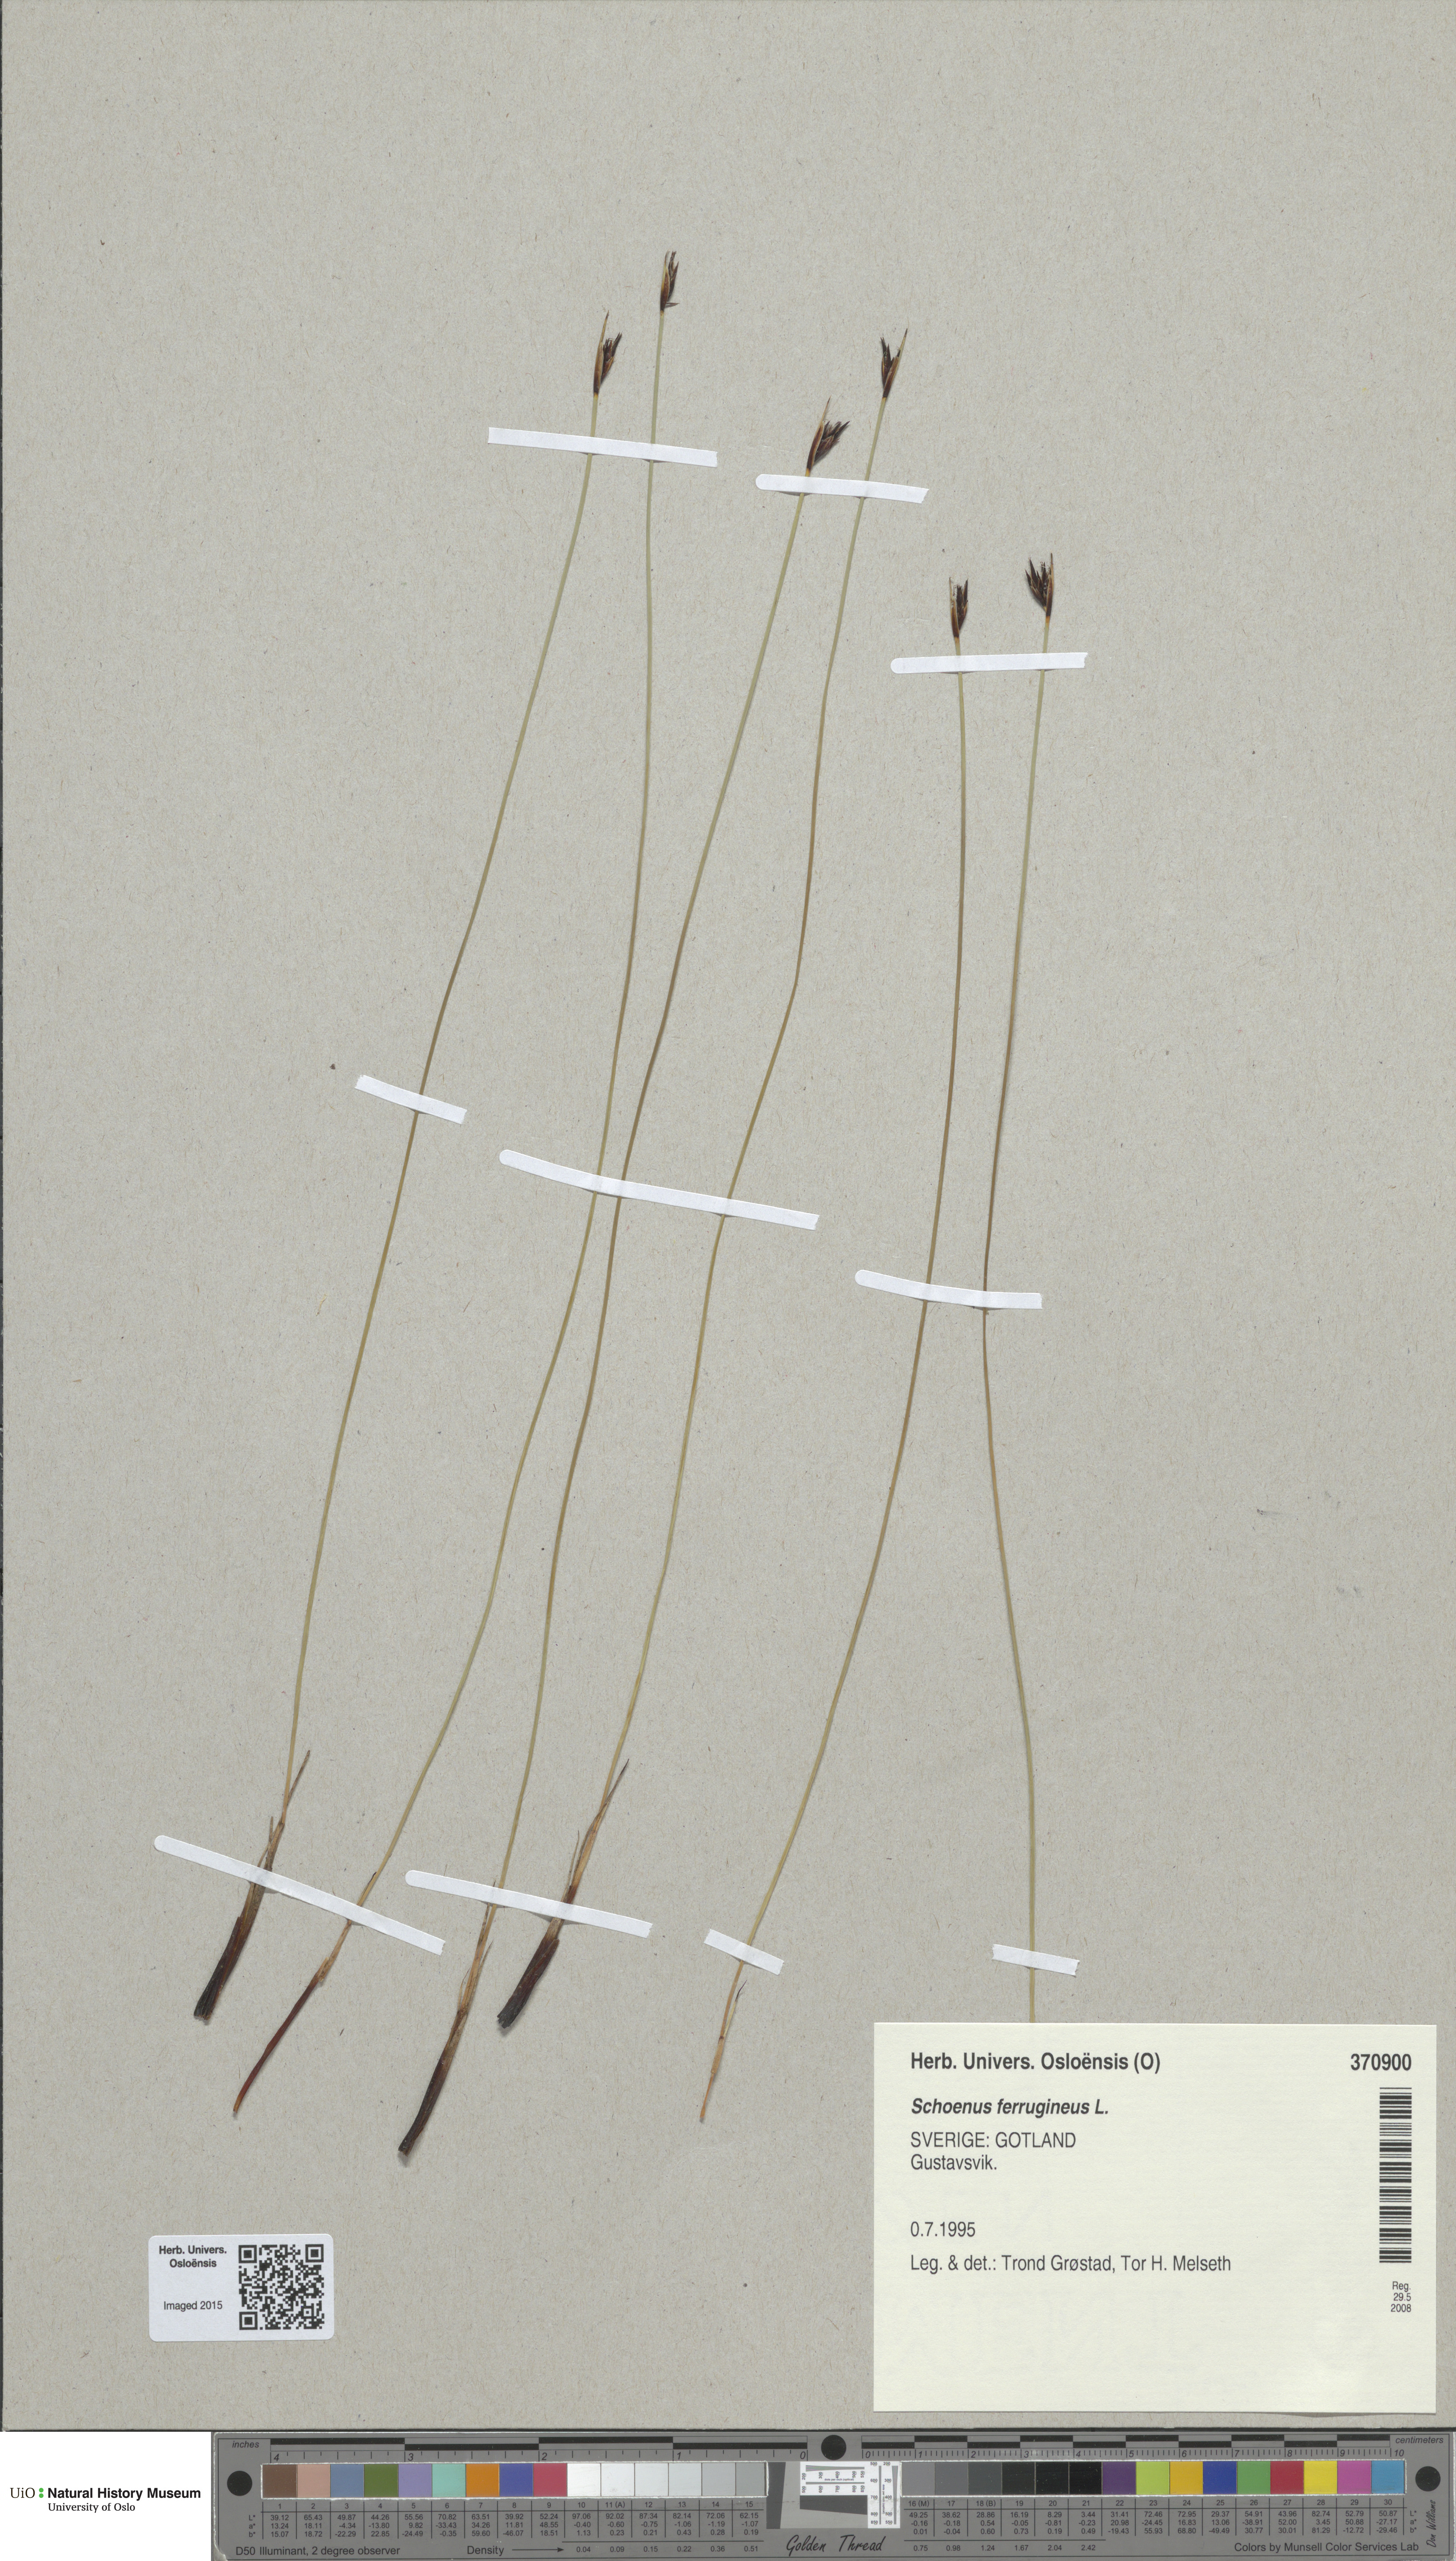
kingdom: Plantae
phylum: Tracheophyta
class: Liliopsida
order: Poales
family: Cyperaceae
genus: Schoenus
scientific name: Schoenus ferrugineus
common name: Brown bog-rush
